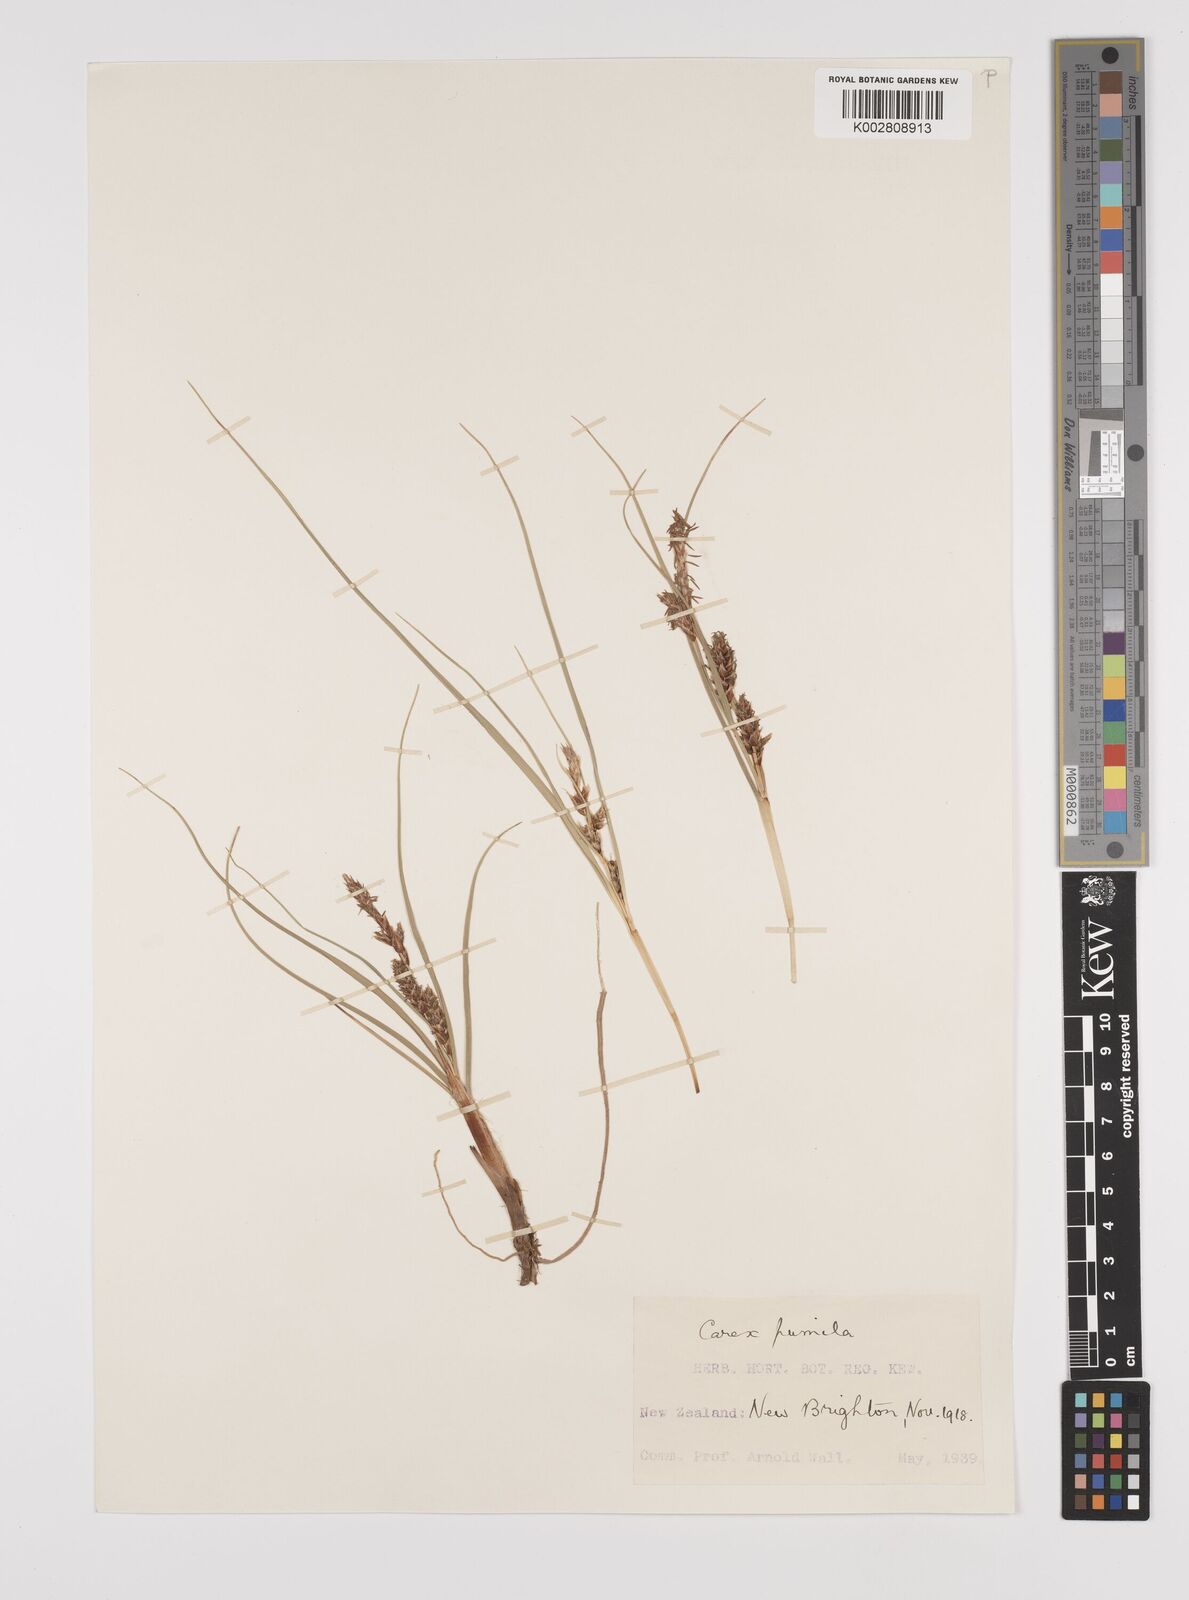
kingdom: Plantae
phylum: Tracheophyta
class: Liliopsida
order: Poales
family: Cyperaceae
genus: Carex
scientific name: Carex pumila
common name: Dwarf sedge
